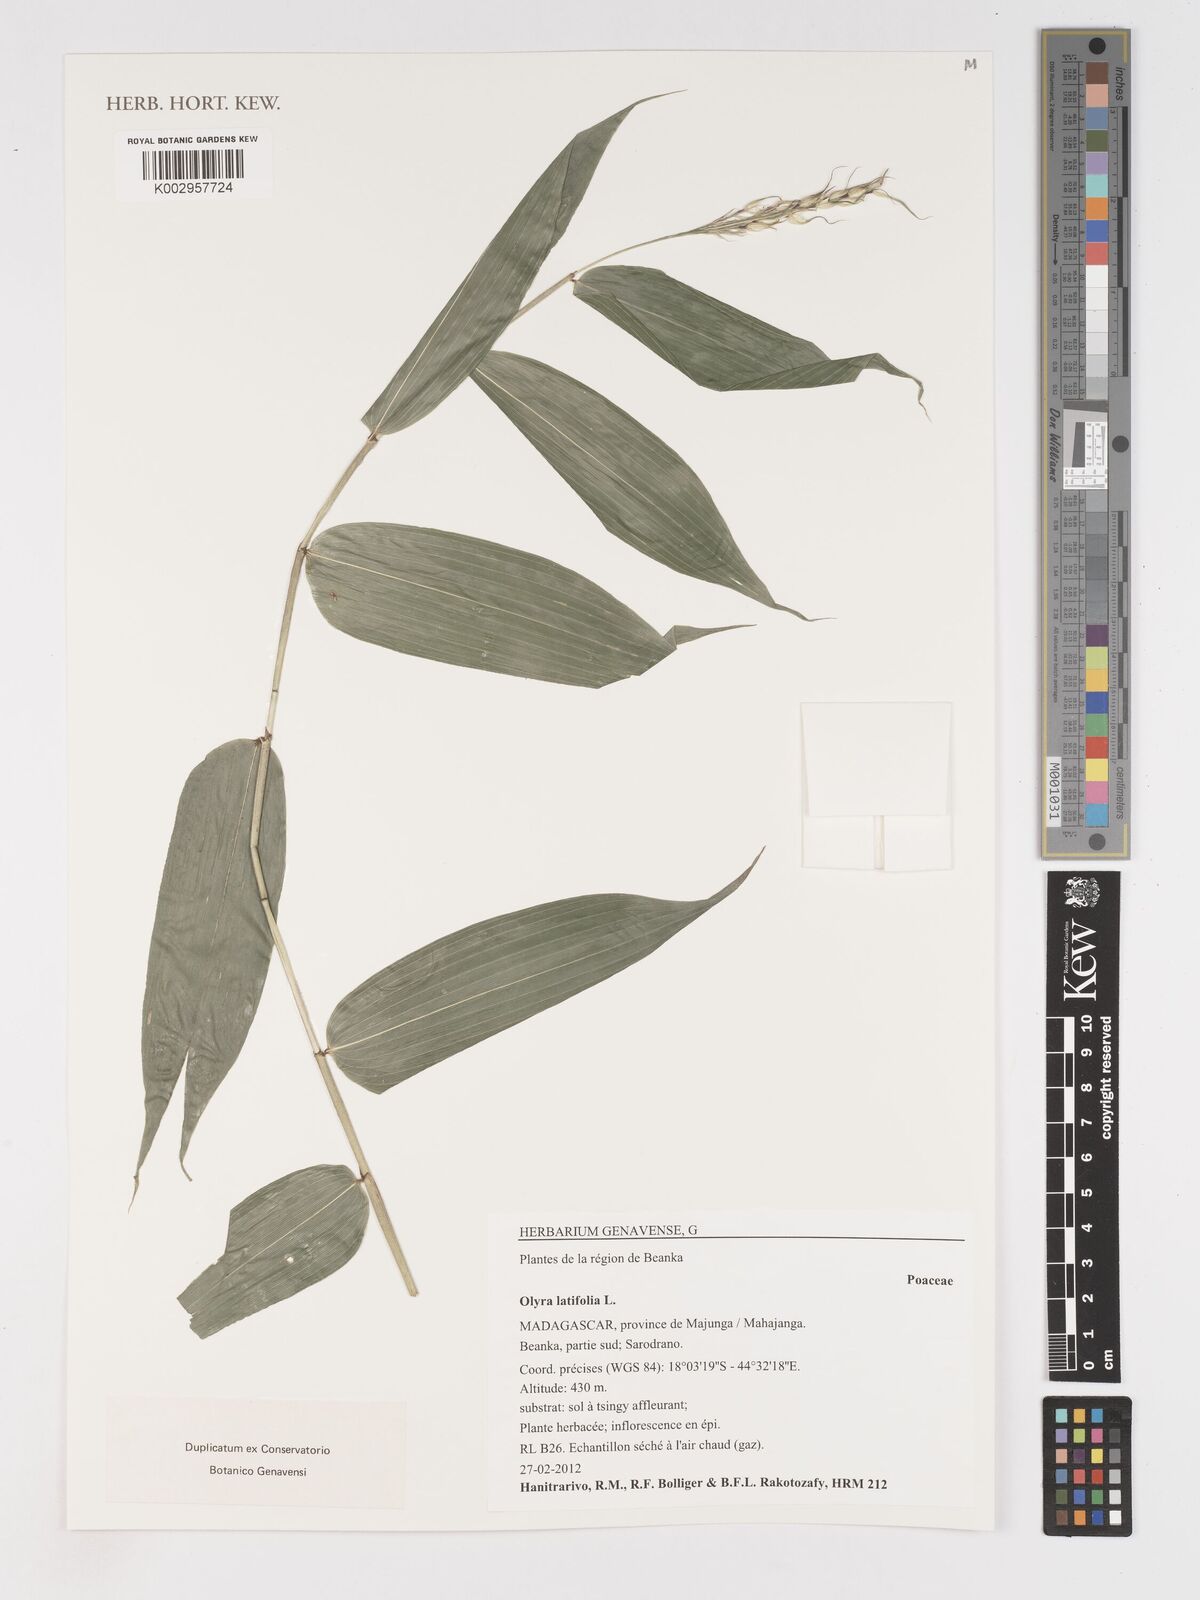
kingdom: Plantae
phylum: Tracheophyta
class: Liliopsida
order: Poales
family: Poaceae
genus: Olyra
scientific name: Olyra latifolia
